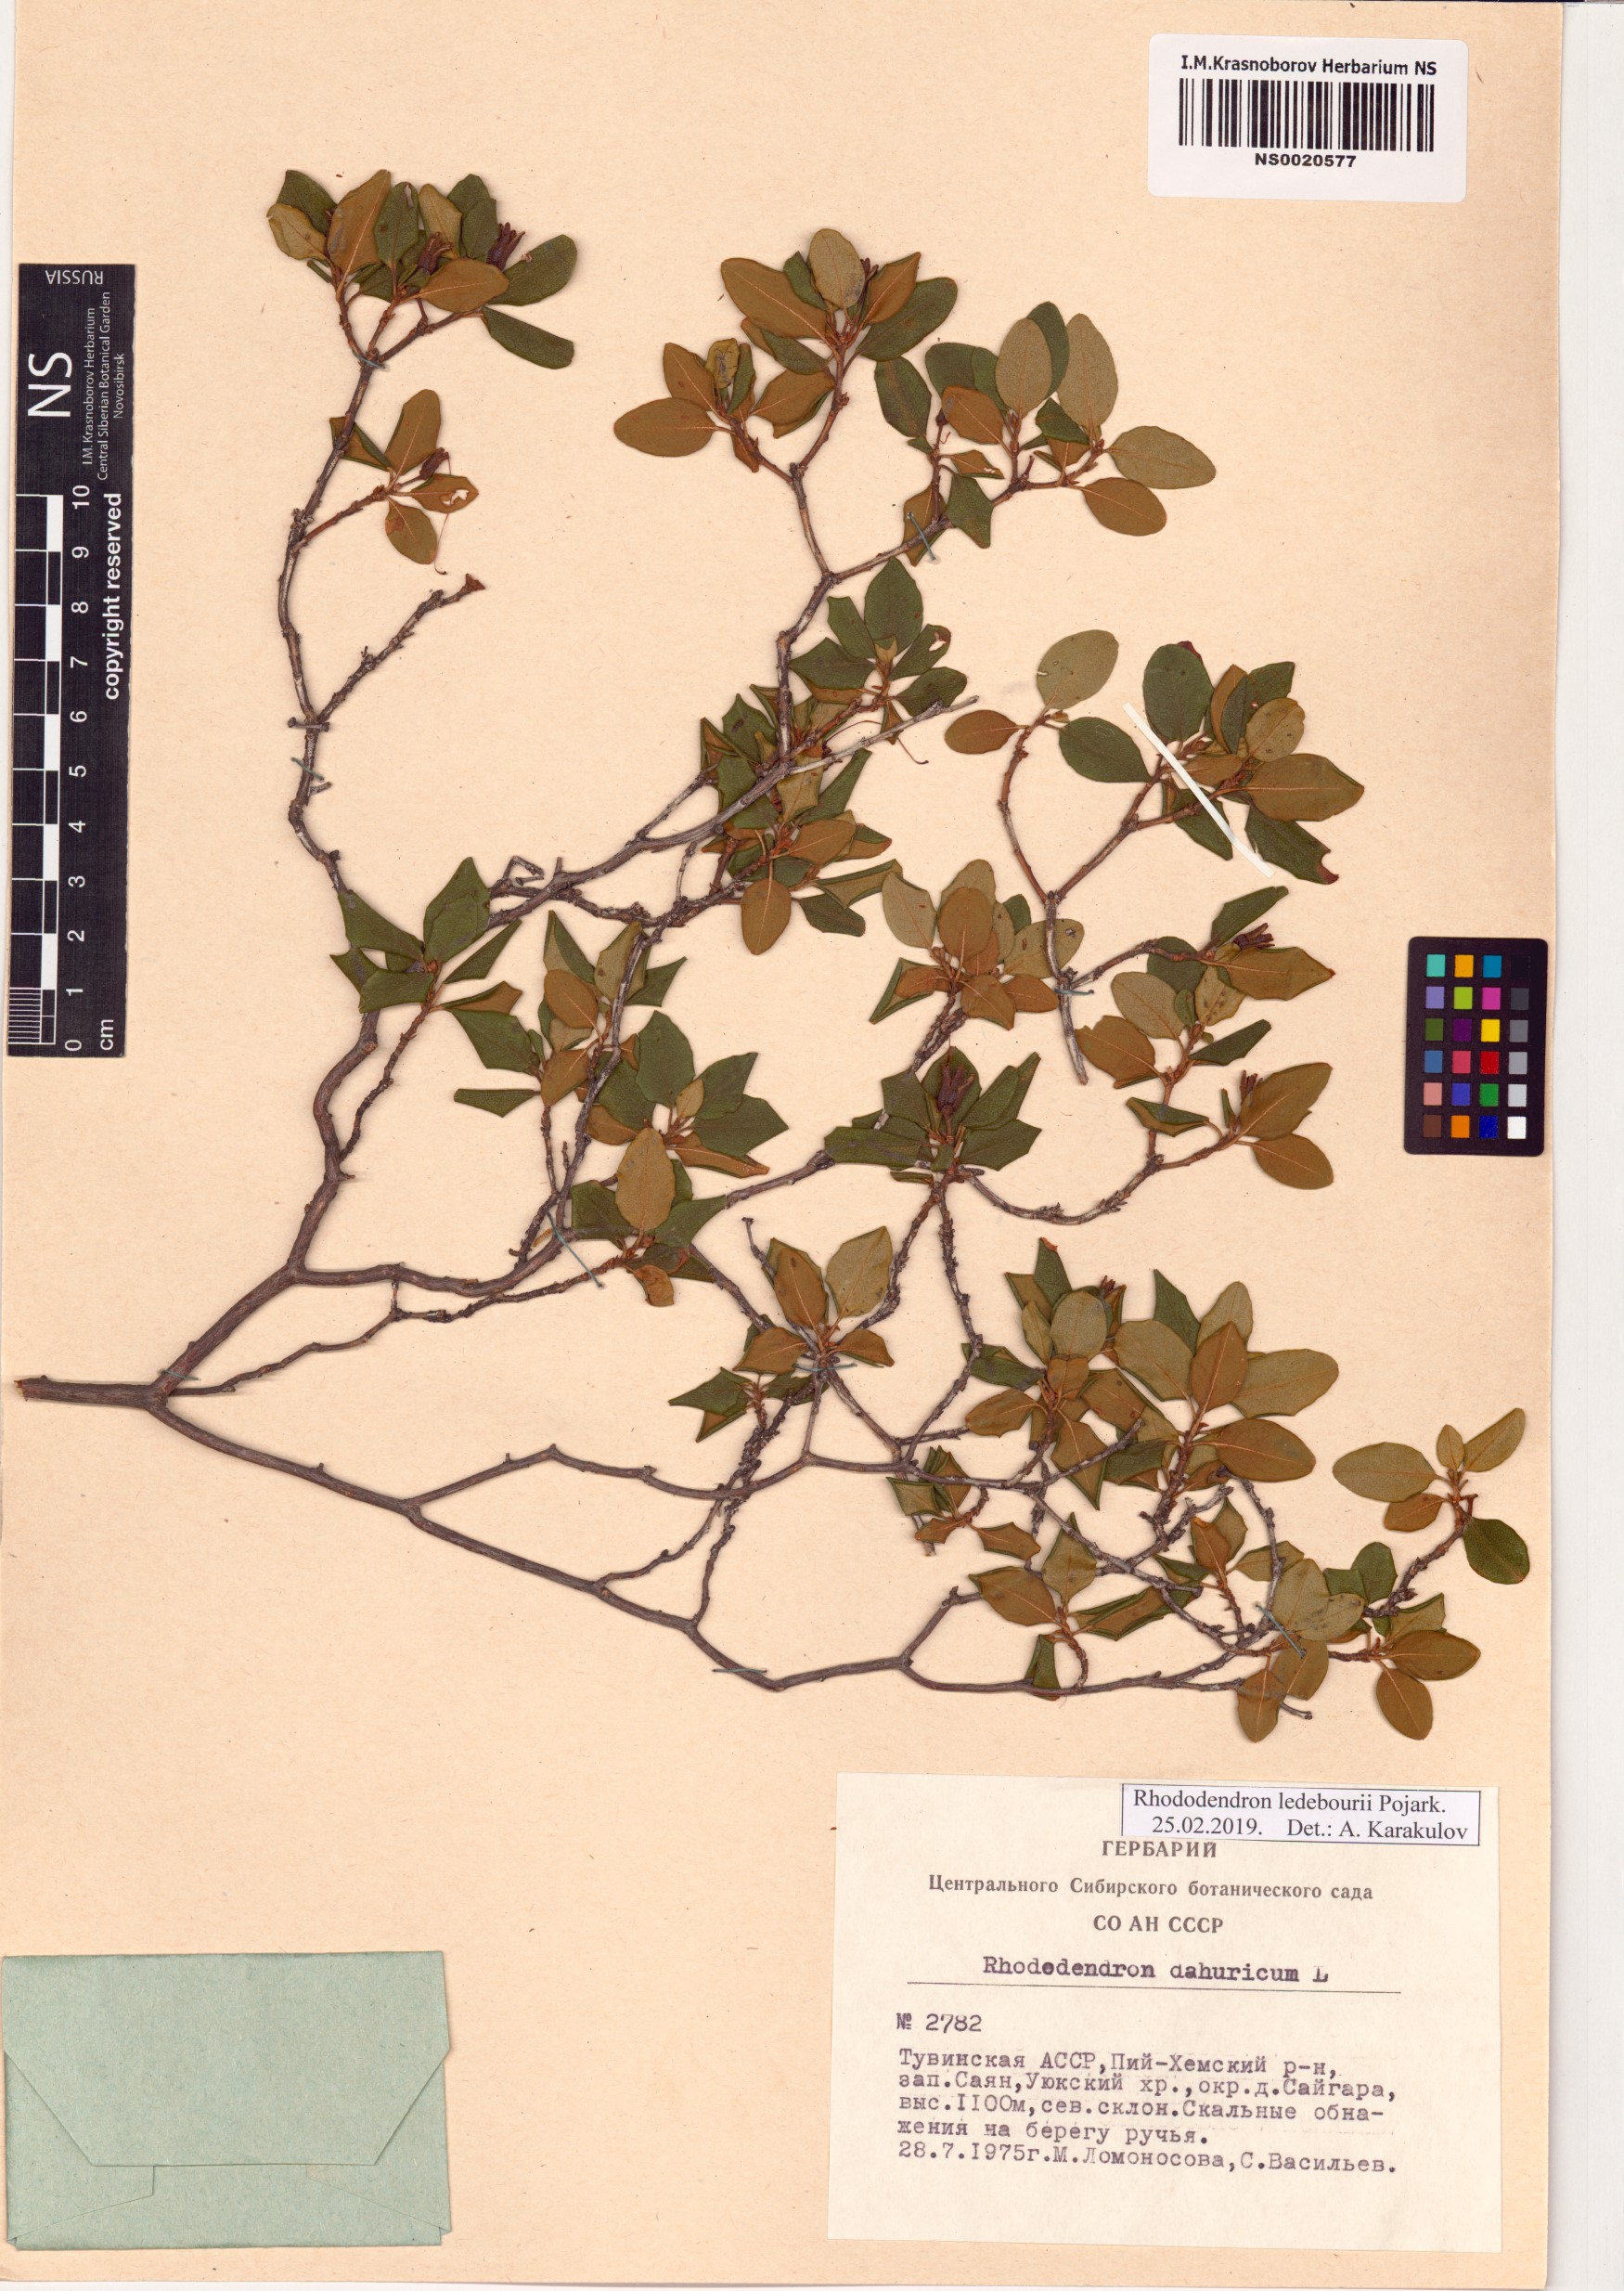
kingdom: Plantae
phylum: Tracheophyta
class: Magnoliopsida
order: Ericales
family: Ericaceae
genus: Rhododendron
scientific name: Rhododendron dauricum
